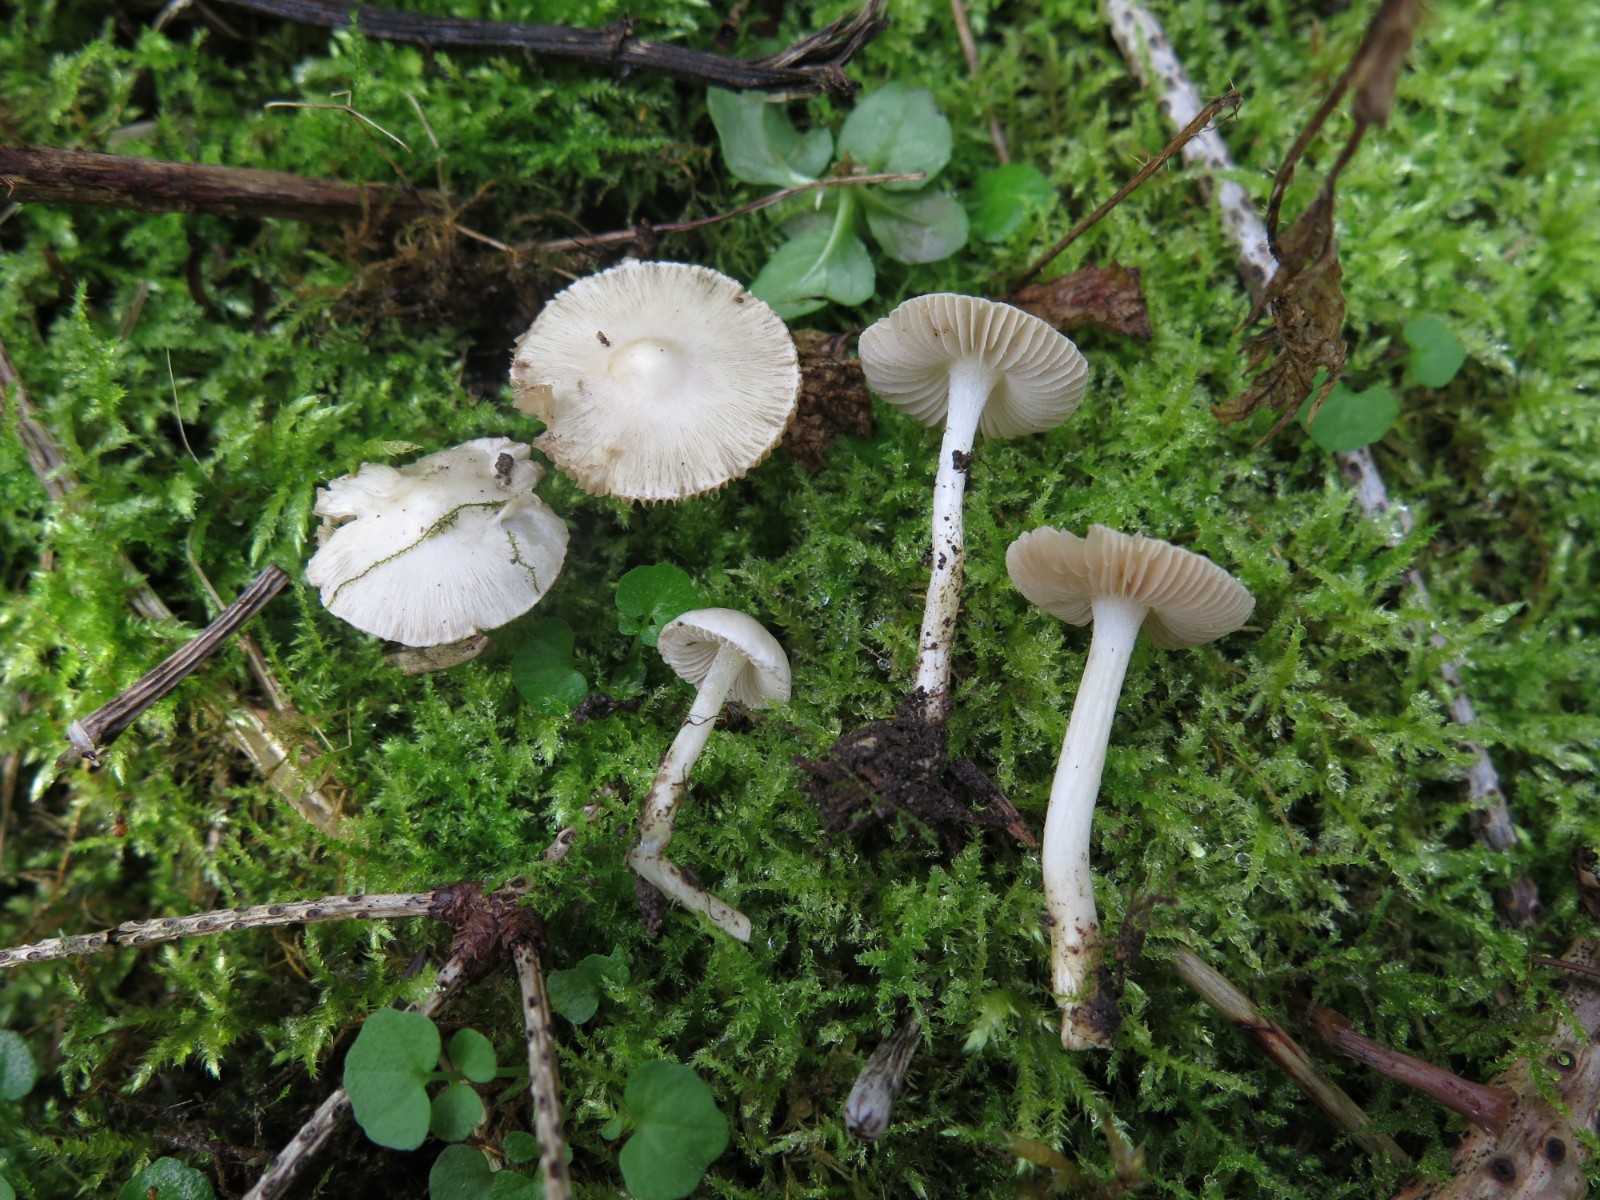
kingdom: Fungi
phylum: Basidiomycota
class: Agaricomycetes
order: Agaricales
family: Inocybaceae
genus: Inocybe
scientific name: Inocybe
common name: almindelig trævlhat
